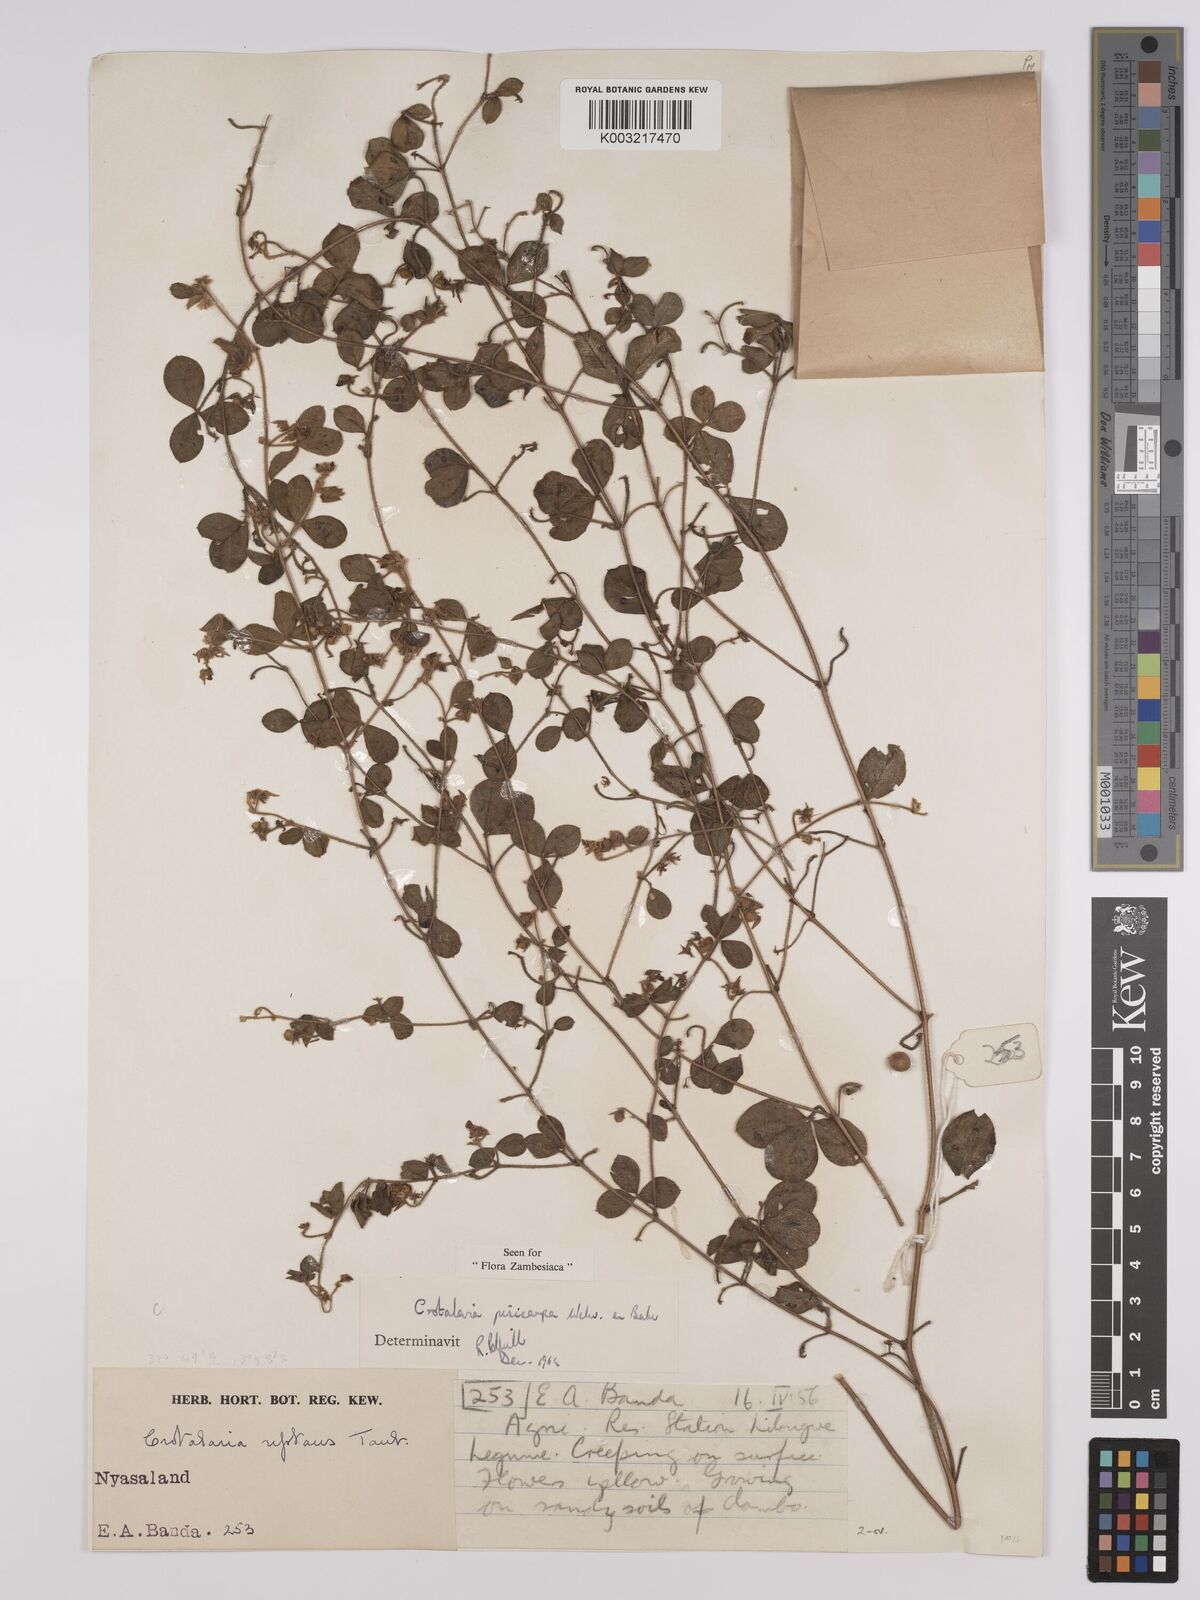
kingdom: Plantae
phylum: Tracheophyta
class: Magnoliopsida
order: Fabales
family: Fabaceae
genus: Crotalaria
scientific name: Crotalaria pisicarpa
